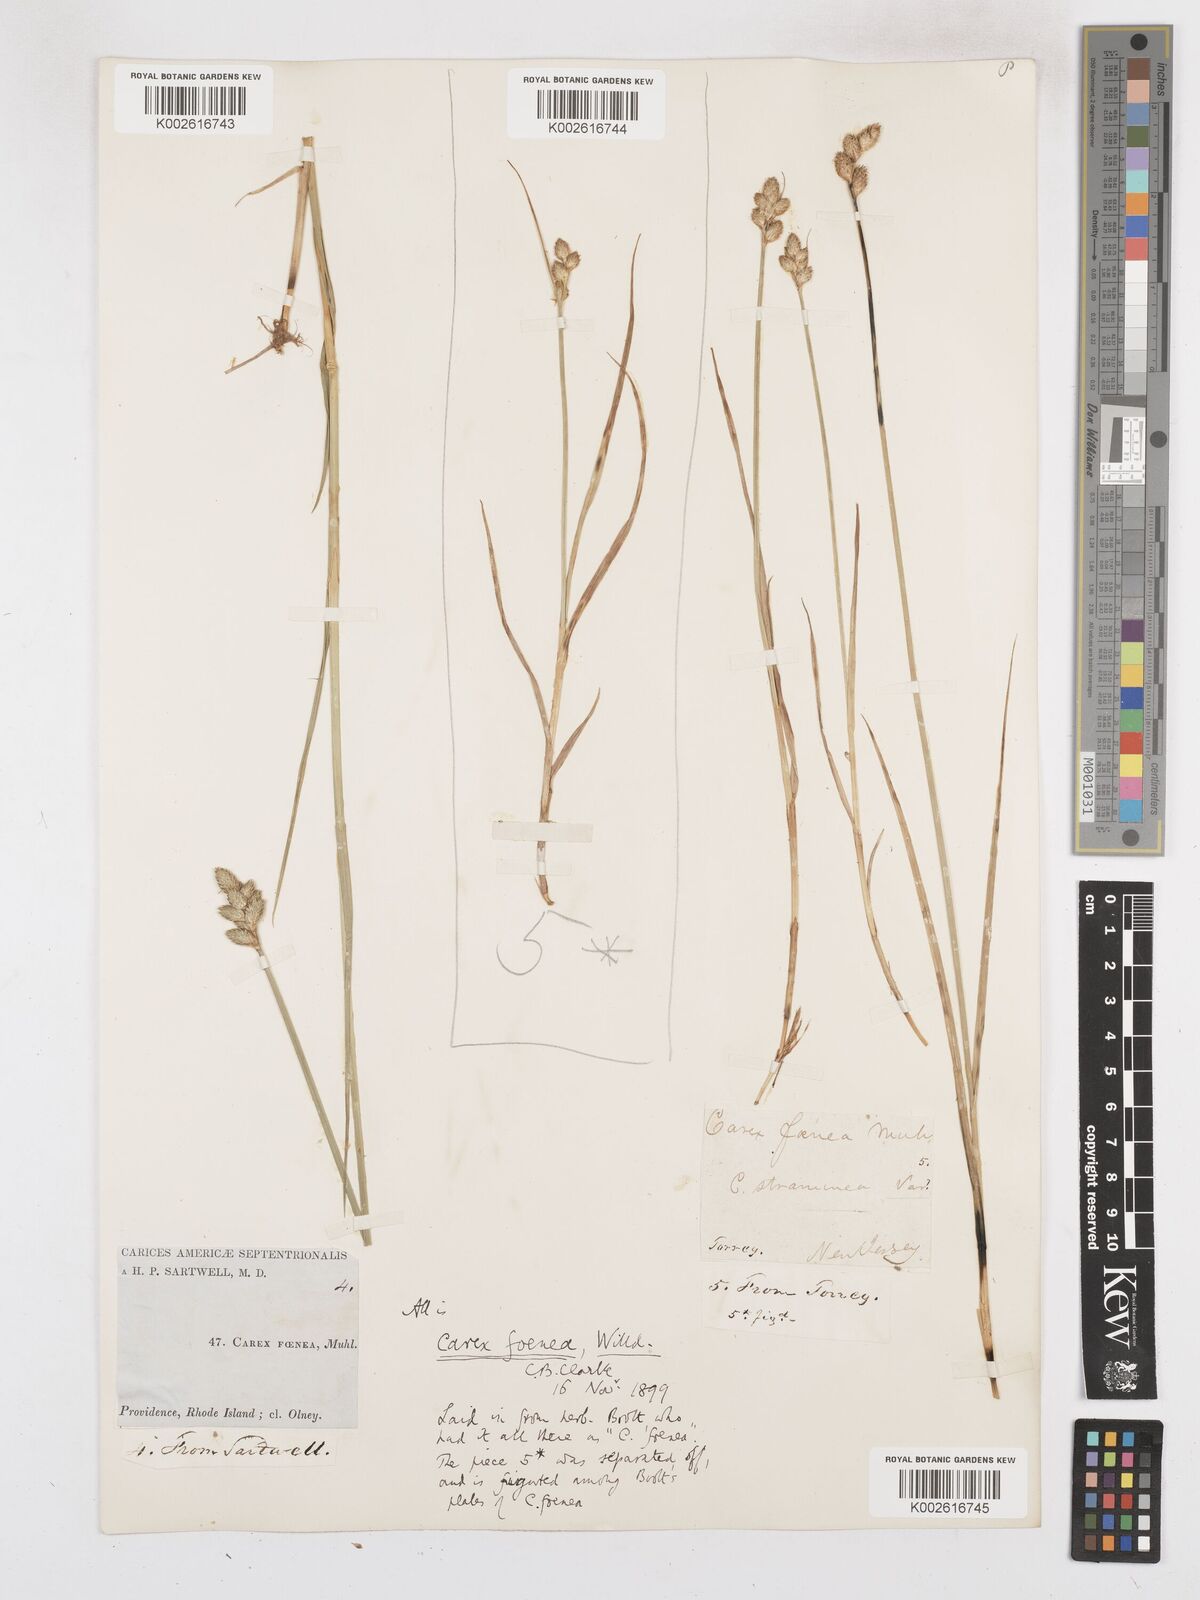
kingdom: Plantae
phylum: Tracheophyta
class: Liliopsida
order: Poales
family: Cyperaceae
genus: Carex
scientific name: Carex argyrantha
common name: Silvery-flowered sedge
